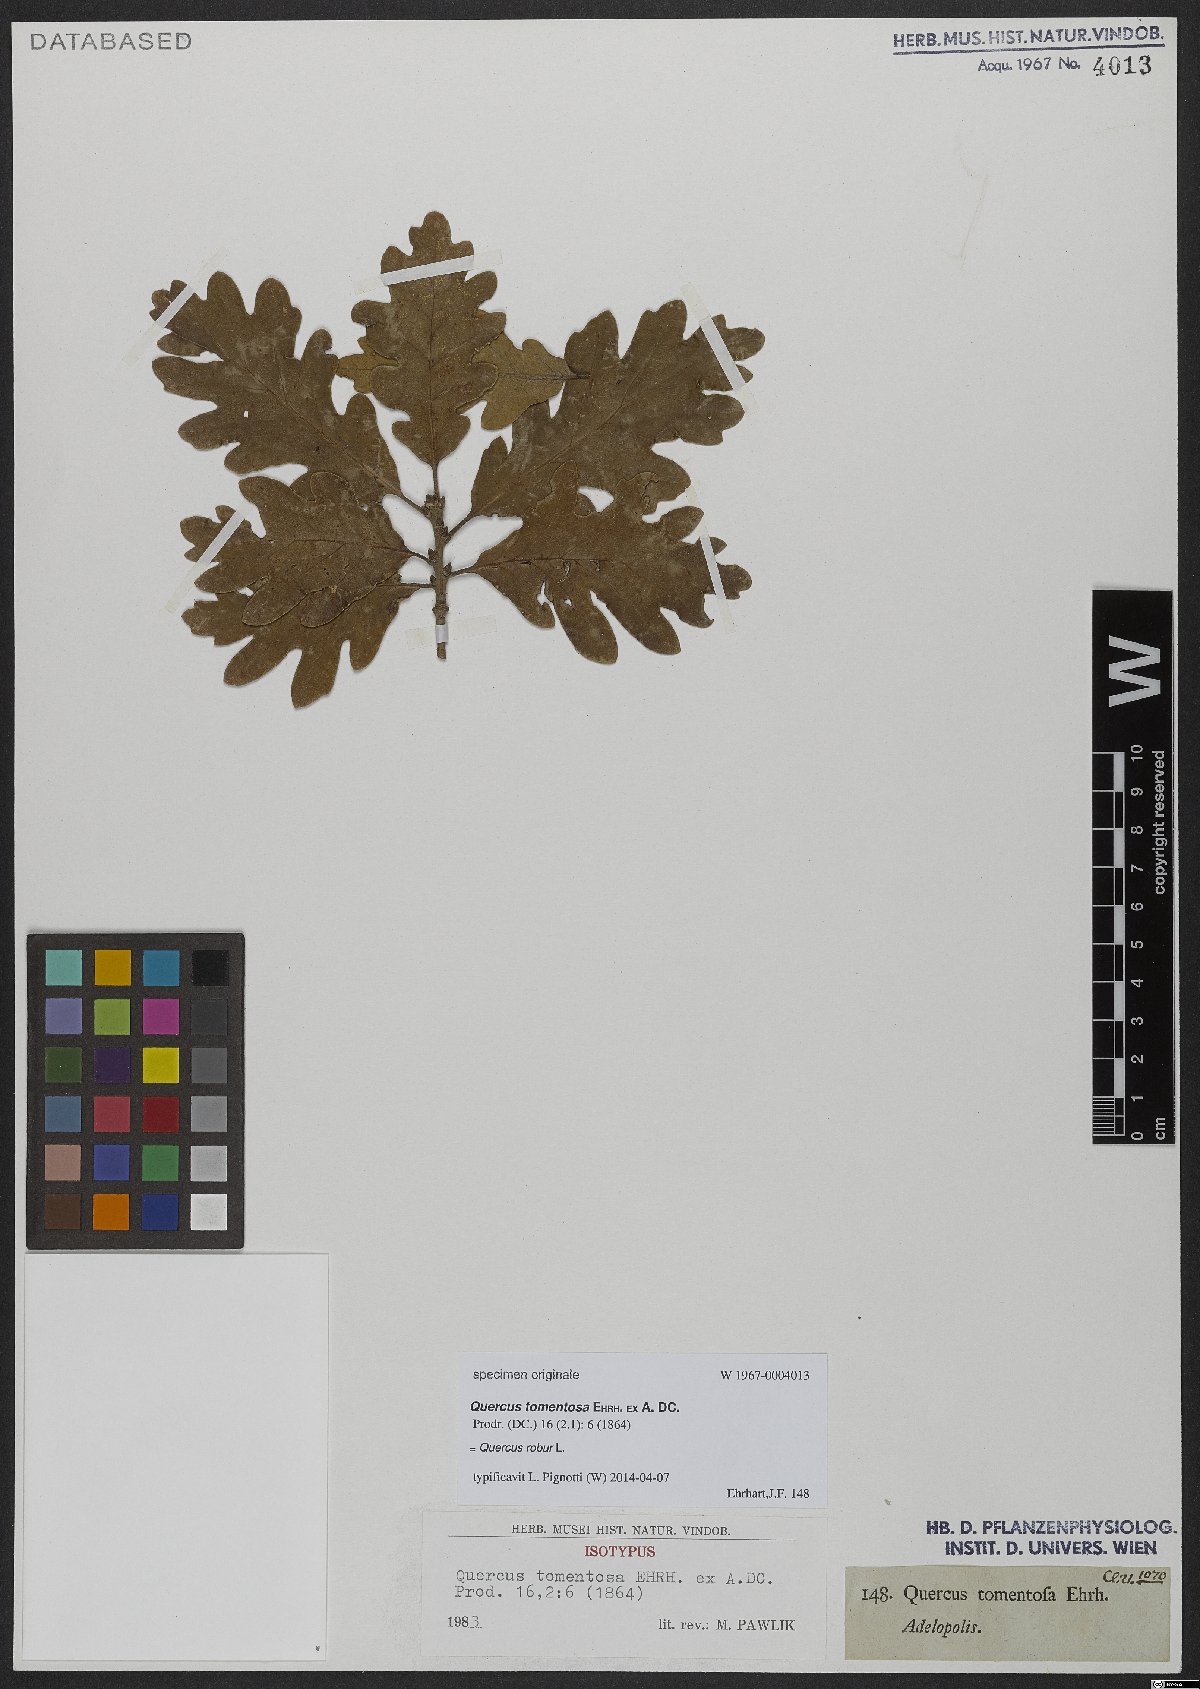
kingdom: Plantae
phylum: Tracheophyta
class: Magnoliopsida
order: Fagales
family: Fagaceae
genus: Quercus
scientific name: Quercus robur
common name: Pedunculate oak
